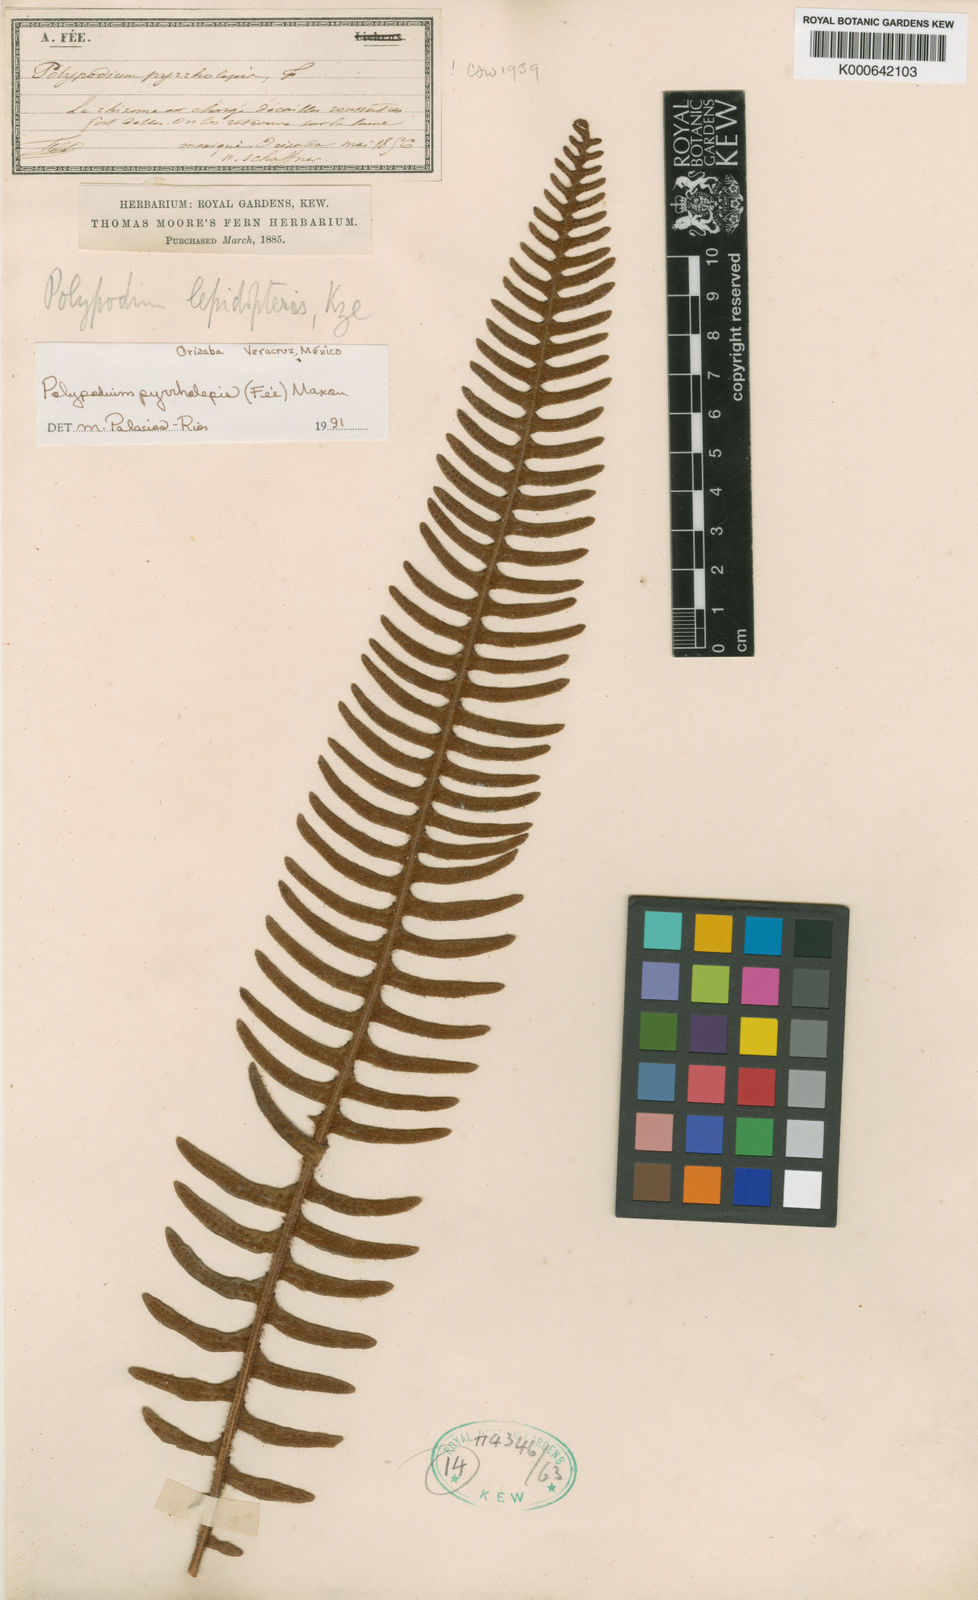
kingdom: Plantae
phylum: Tracheophyta
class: Polypodiopsida
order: Polypodiales
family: Polypodiaceae
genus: Polypodium
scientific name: Polypodium
